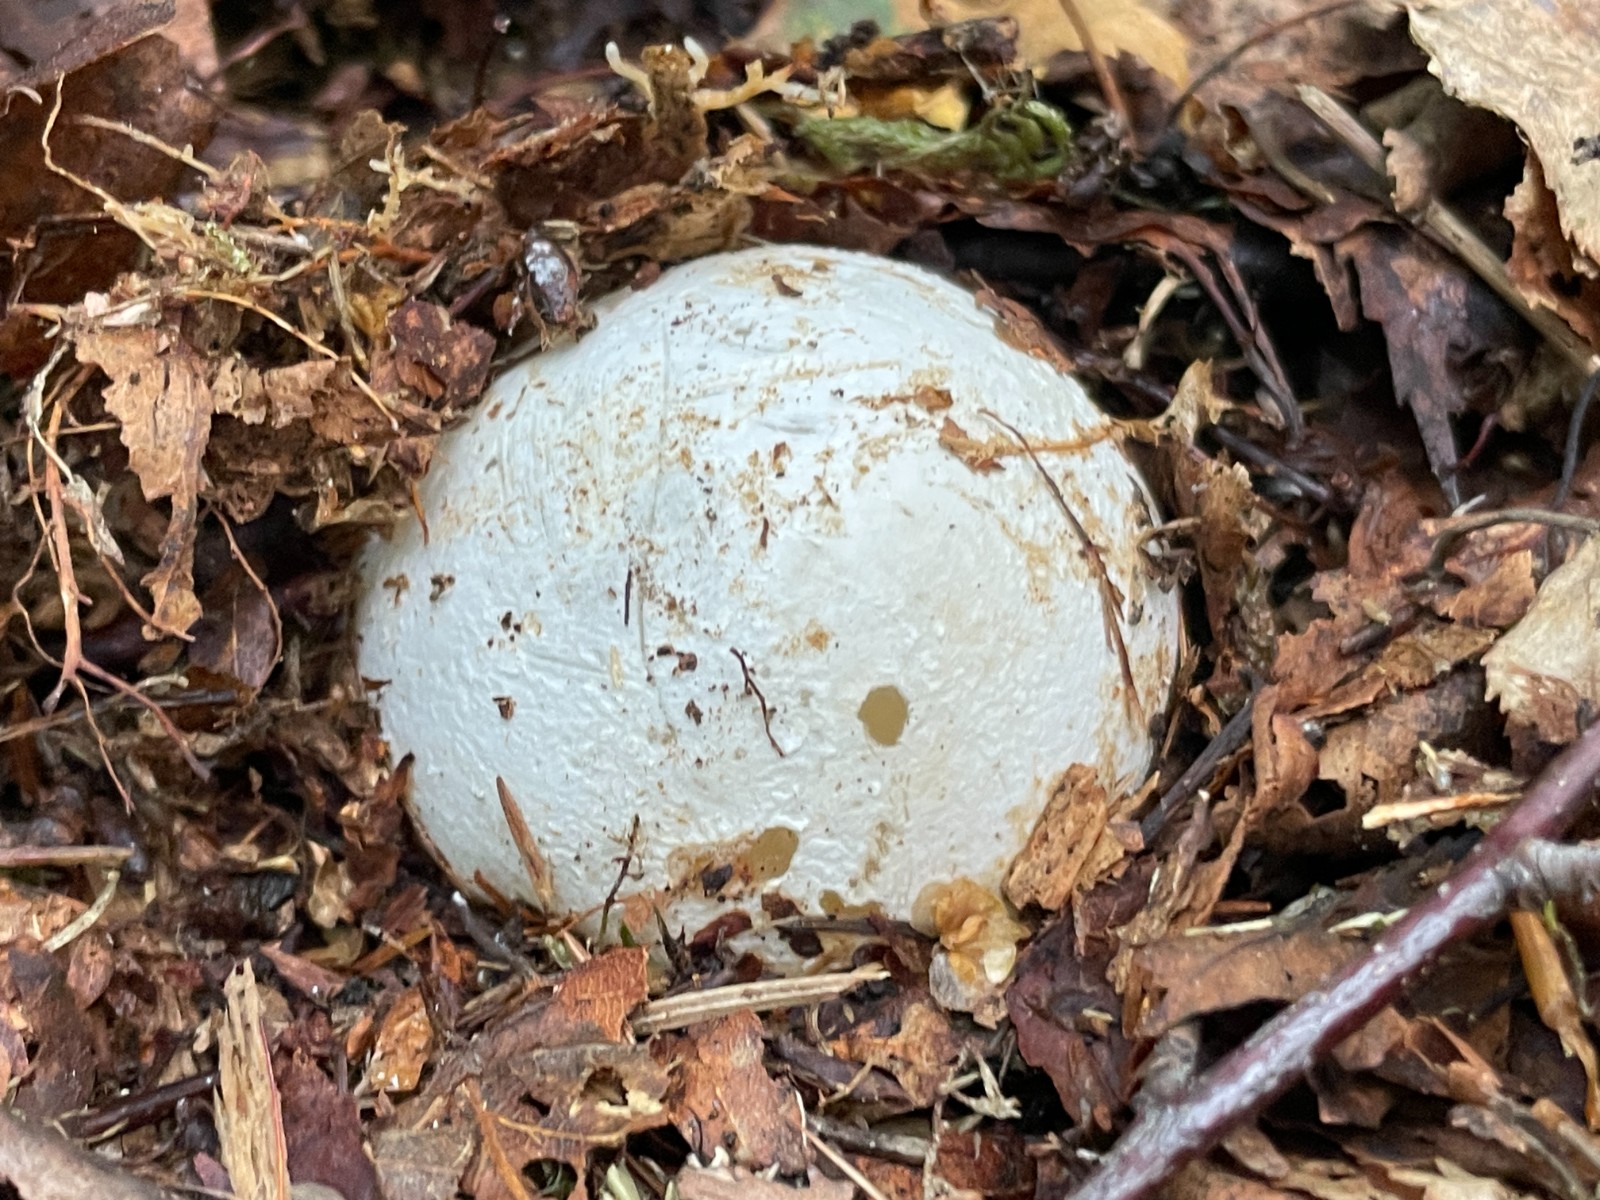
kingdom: Fungi
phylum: Basidiomycota
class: Agaricomycetes
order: Phallales
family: Phallaceae
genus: Phallus
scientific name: Phallus impudicus
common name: almindelig stinksvamp
